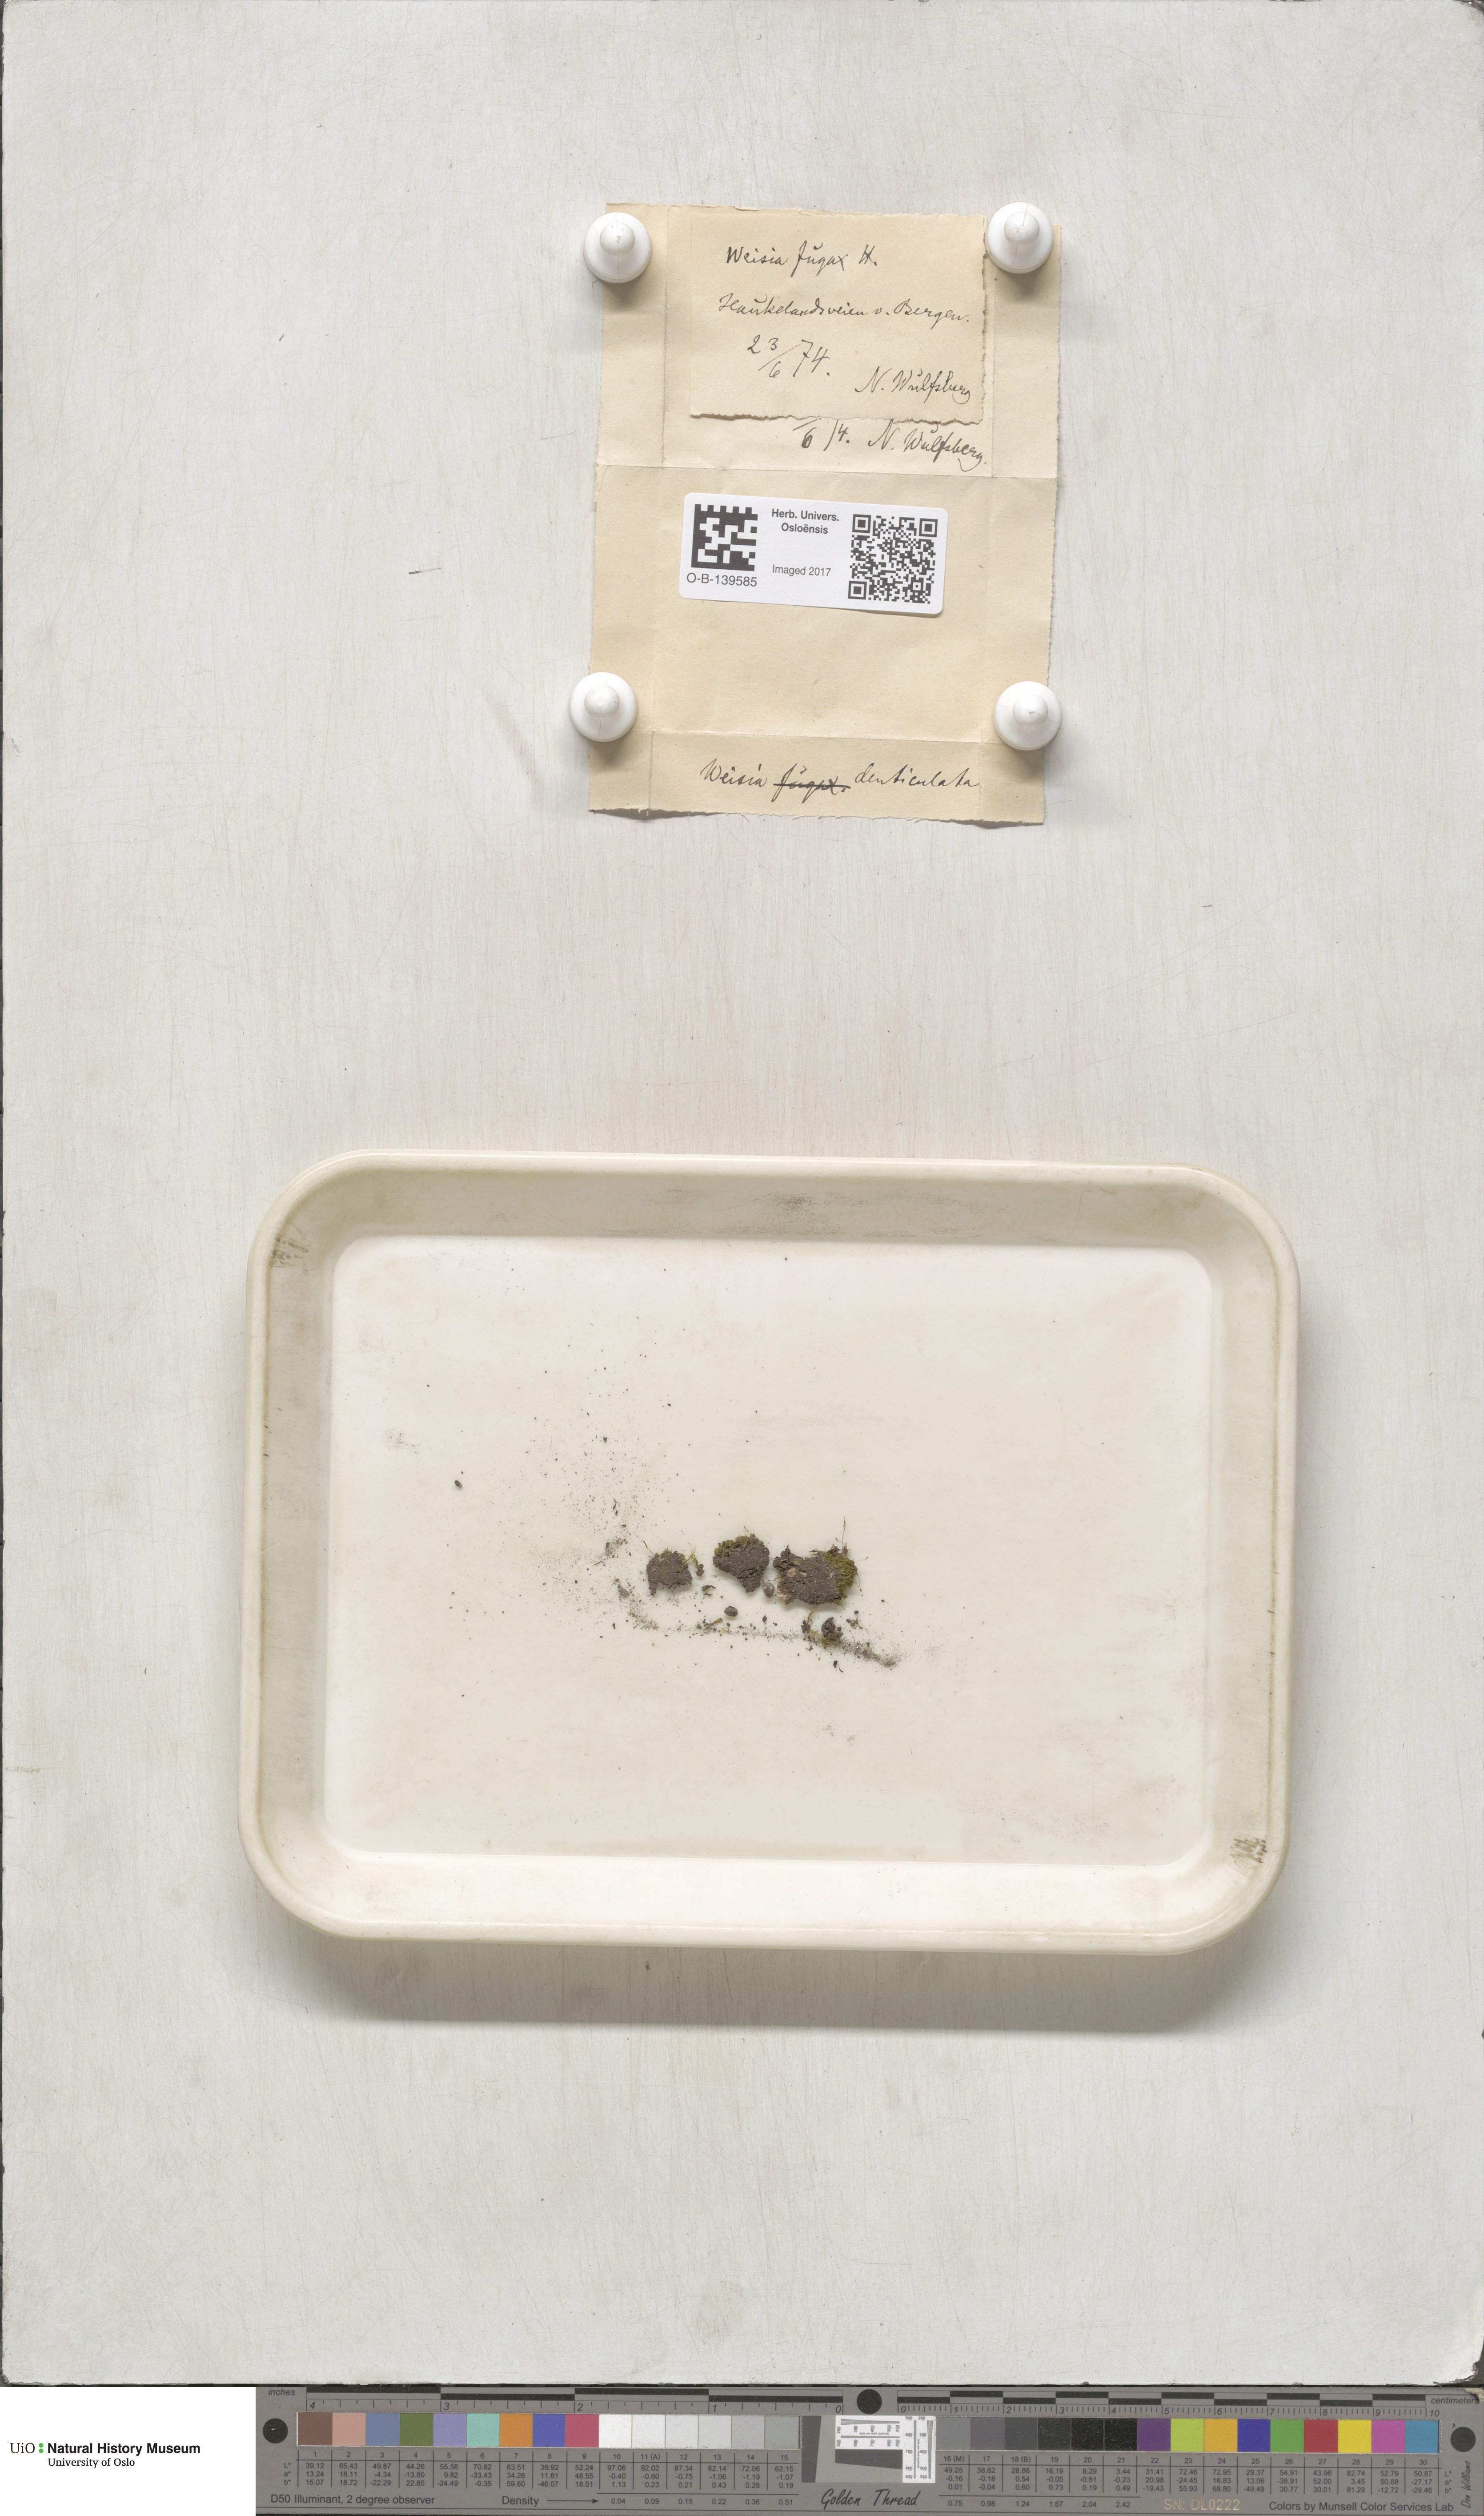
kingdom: Plantae
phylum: Bryophyta
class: Bryopsida
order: Dicranales
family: Rhabdoweisiaceae
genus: Rhabdoweisia
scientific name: Rhabdoweisia crispata
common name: Fine-toothed streak moss
